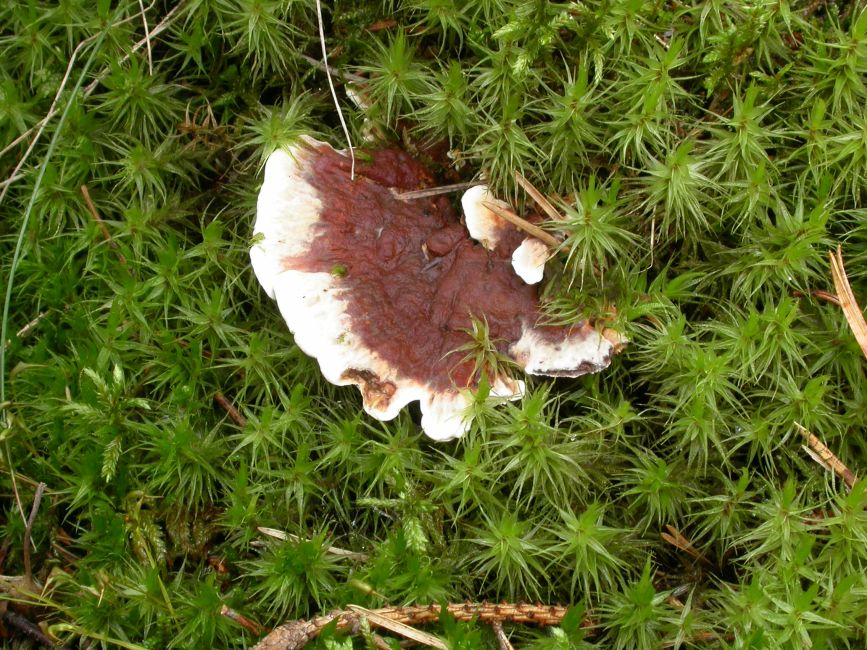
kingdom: Fungi
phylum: Basidiomycota
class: Agaricomycetes
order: Thelephorales
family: Bankeraceae
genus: Hydnellum
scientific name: Hydnellum aurantiacum
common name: orange korkpigsvamp
